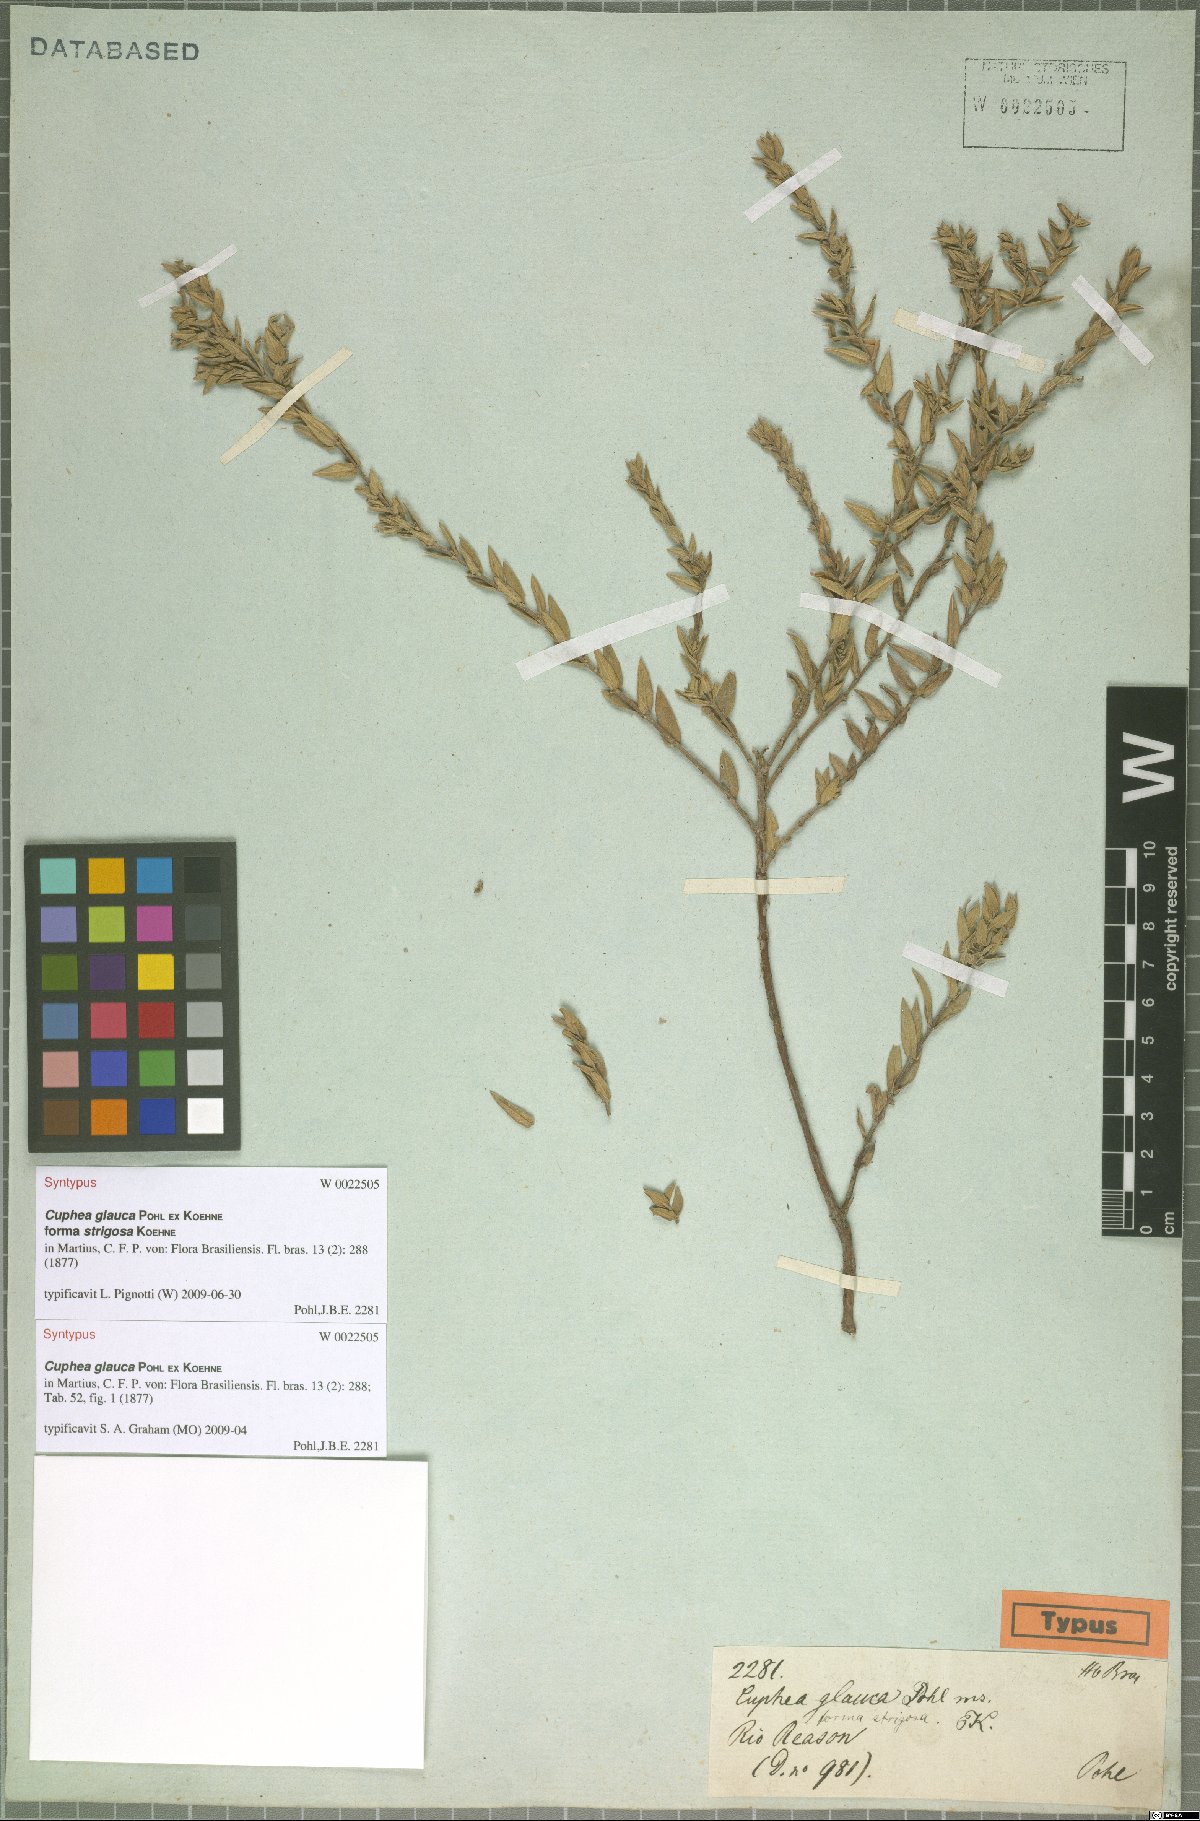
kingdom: Plantae
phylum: Tracheophyta
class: Magnoliopsida
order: Myrtales
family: Lythraceae
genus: Cuphea
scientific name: Cuphea glauca
